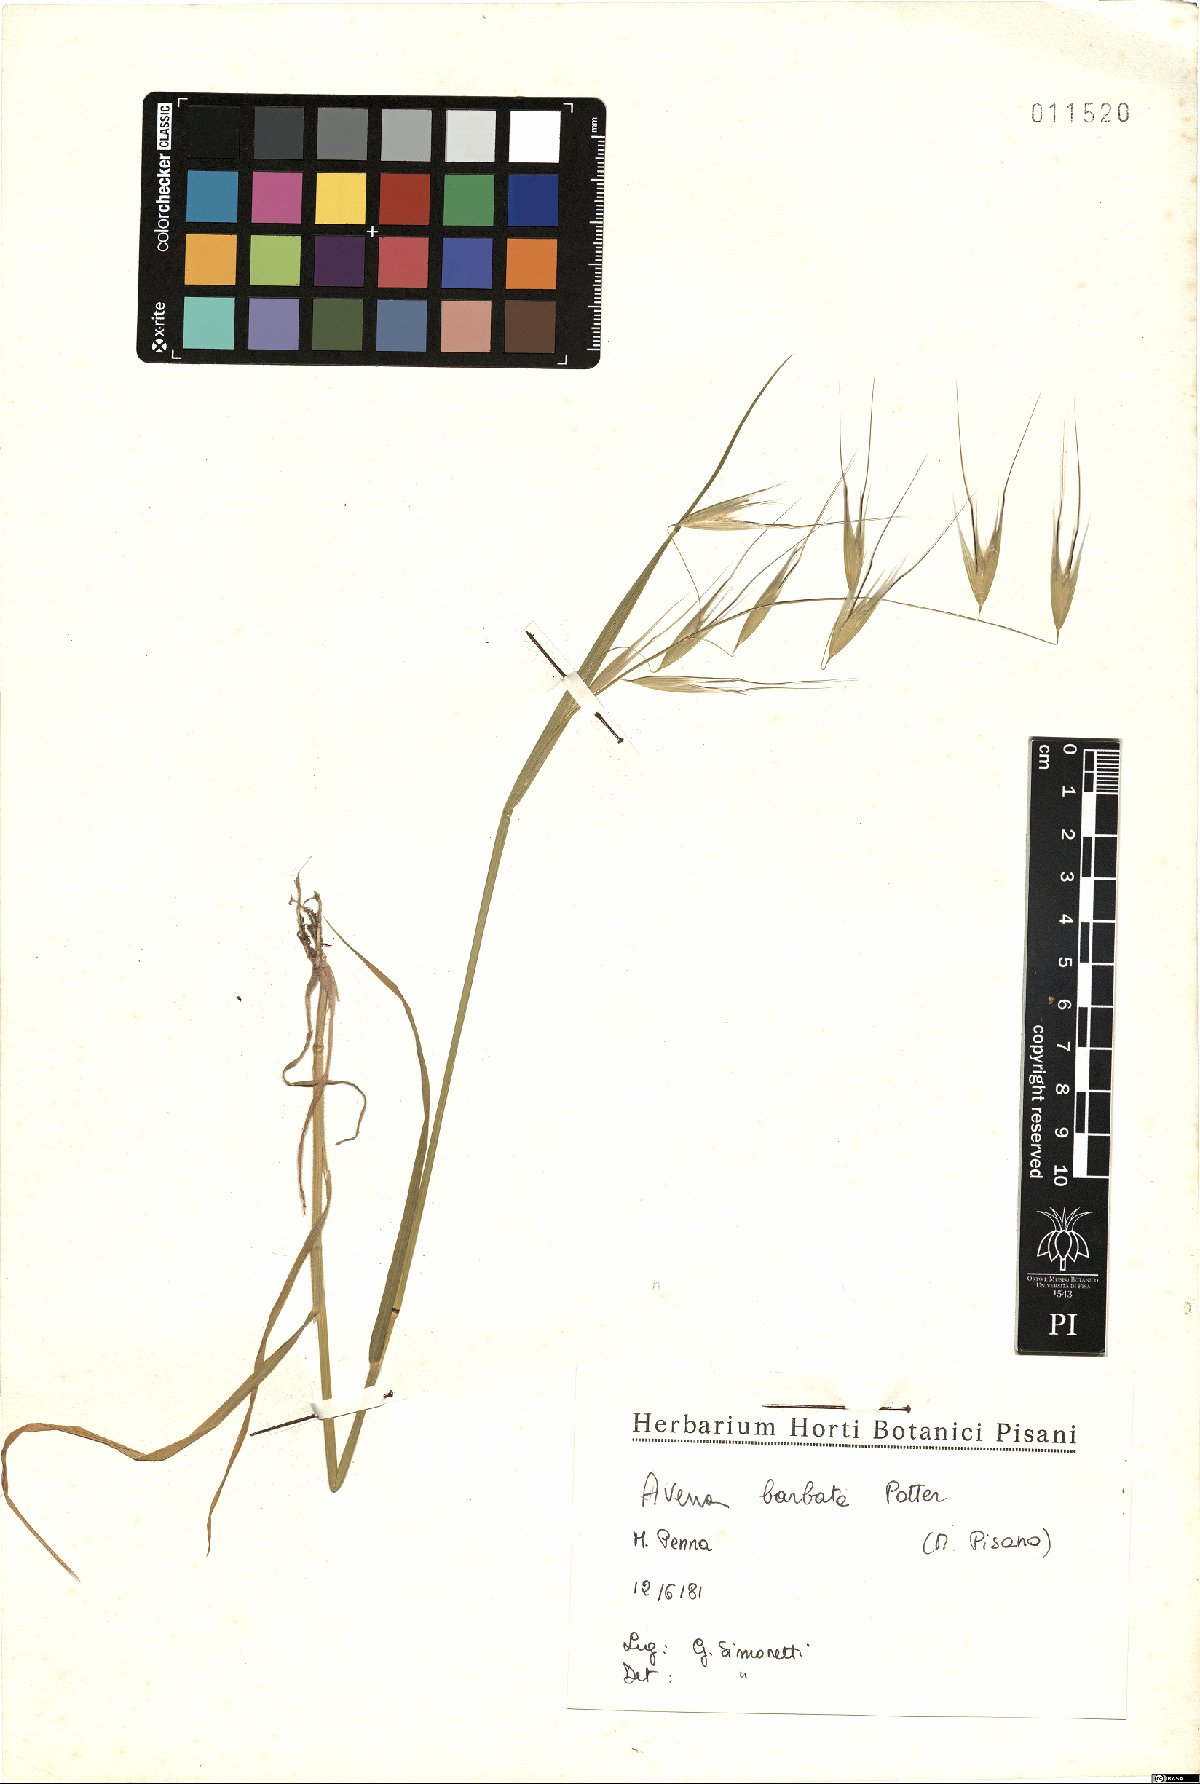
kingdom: Plantae
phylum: Tracheophyta
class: Liliopsida
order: Poales
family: Poaceae
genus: Avena
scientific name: Avena barbata
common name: Slender oat
